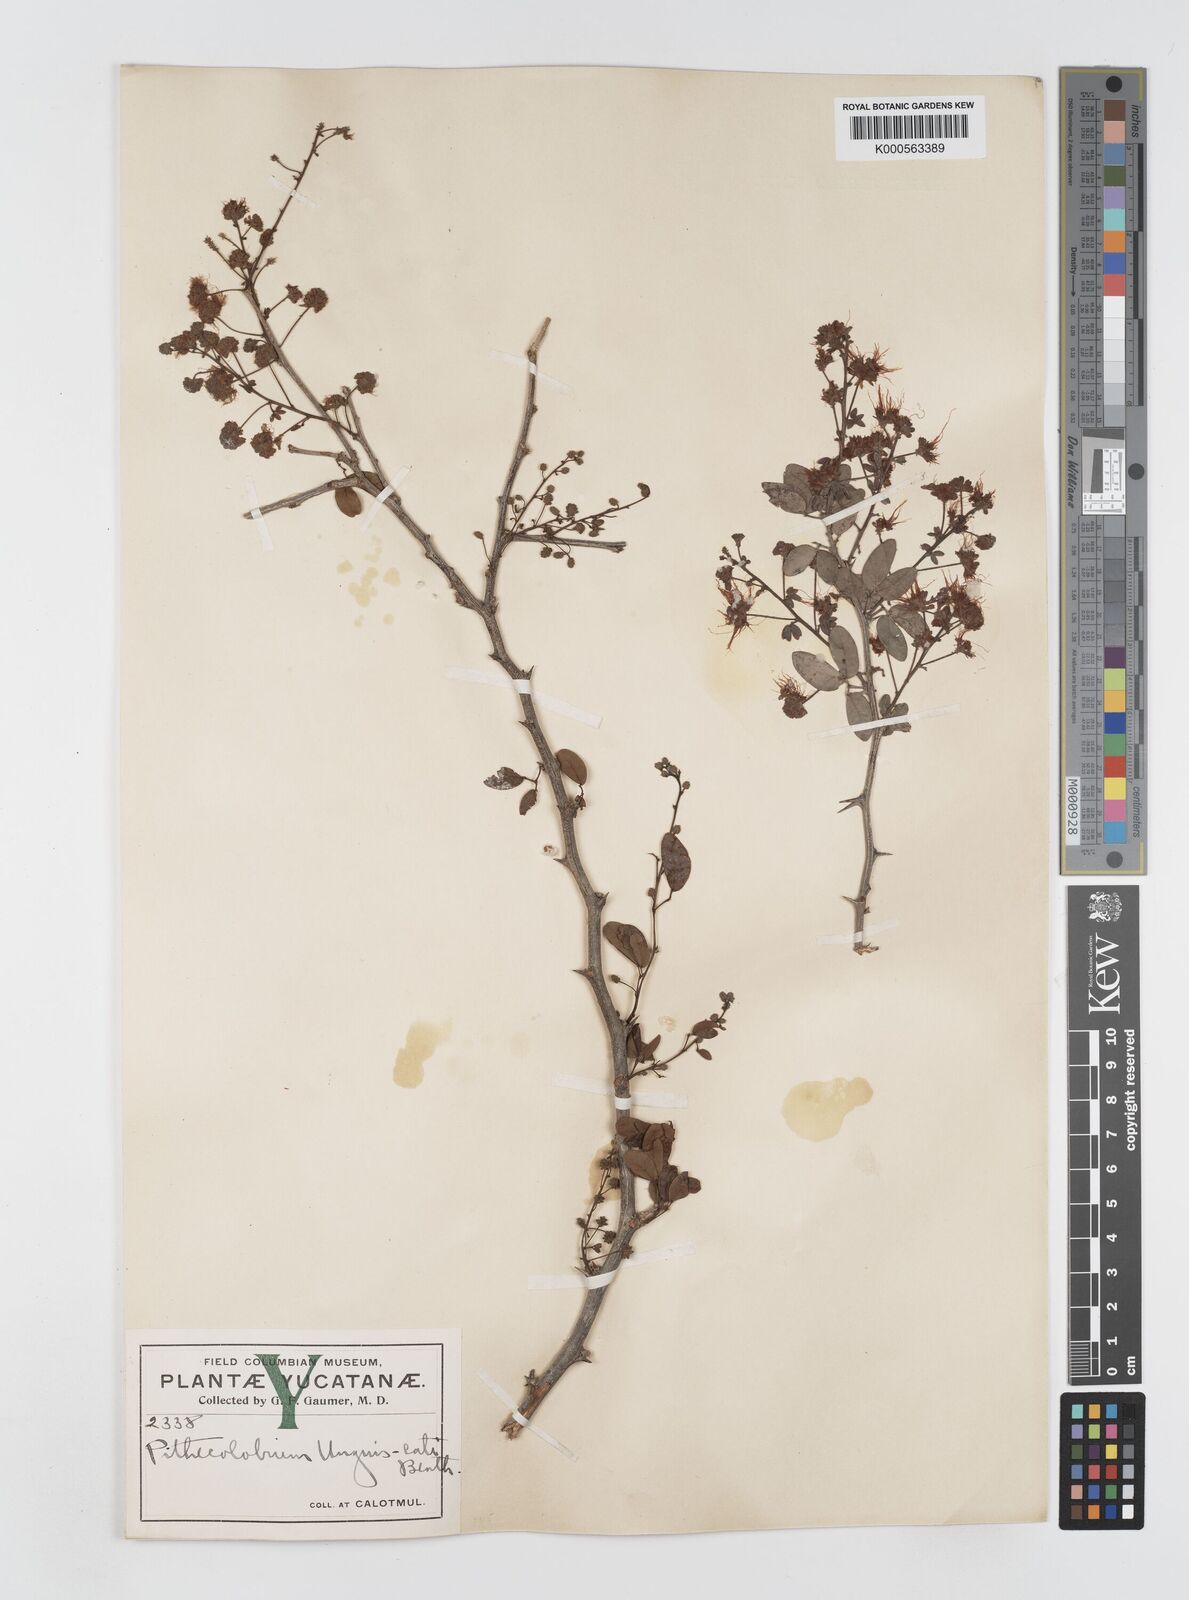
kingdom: Plantae
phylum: Tracheophyta
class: Magnoliopsida
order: Fabales
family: Fabaceae
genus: Pithecellobium
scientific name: Pithecellobium unguis-cati
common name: Cat's-claw
